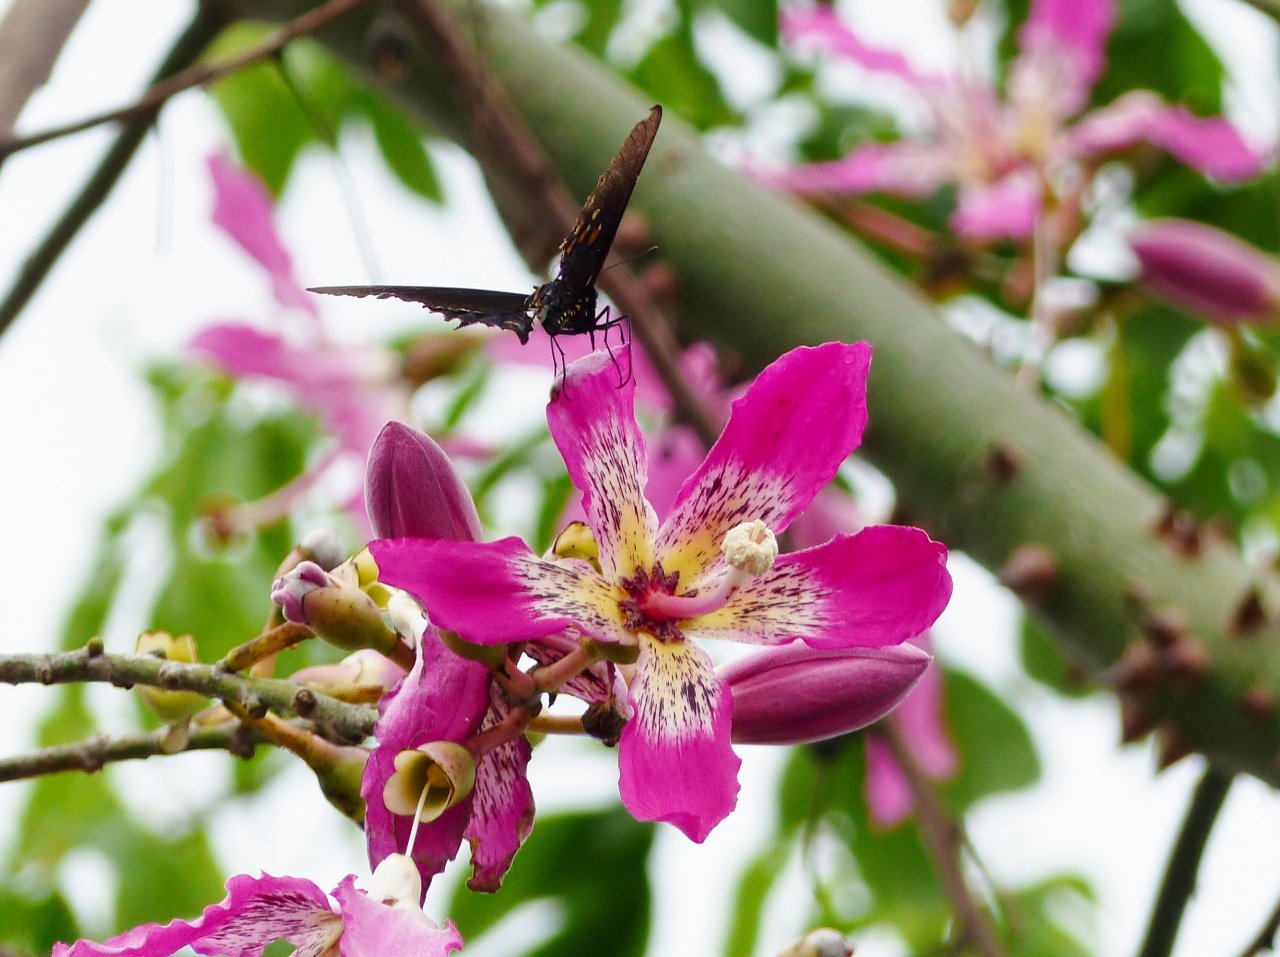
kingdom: Animalia
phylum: Arthropoda
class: Insecta
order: Lepidoptera
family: Papilionidae
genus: Battus
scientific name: Battus philenor
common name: Pipevine Swallowtail
